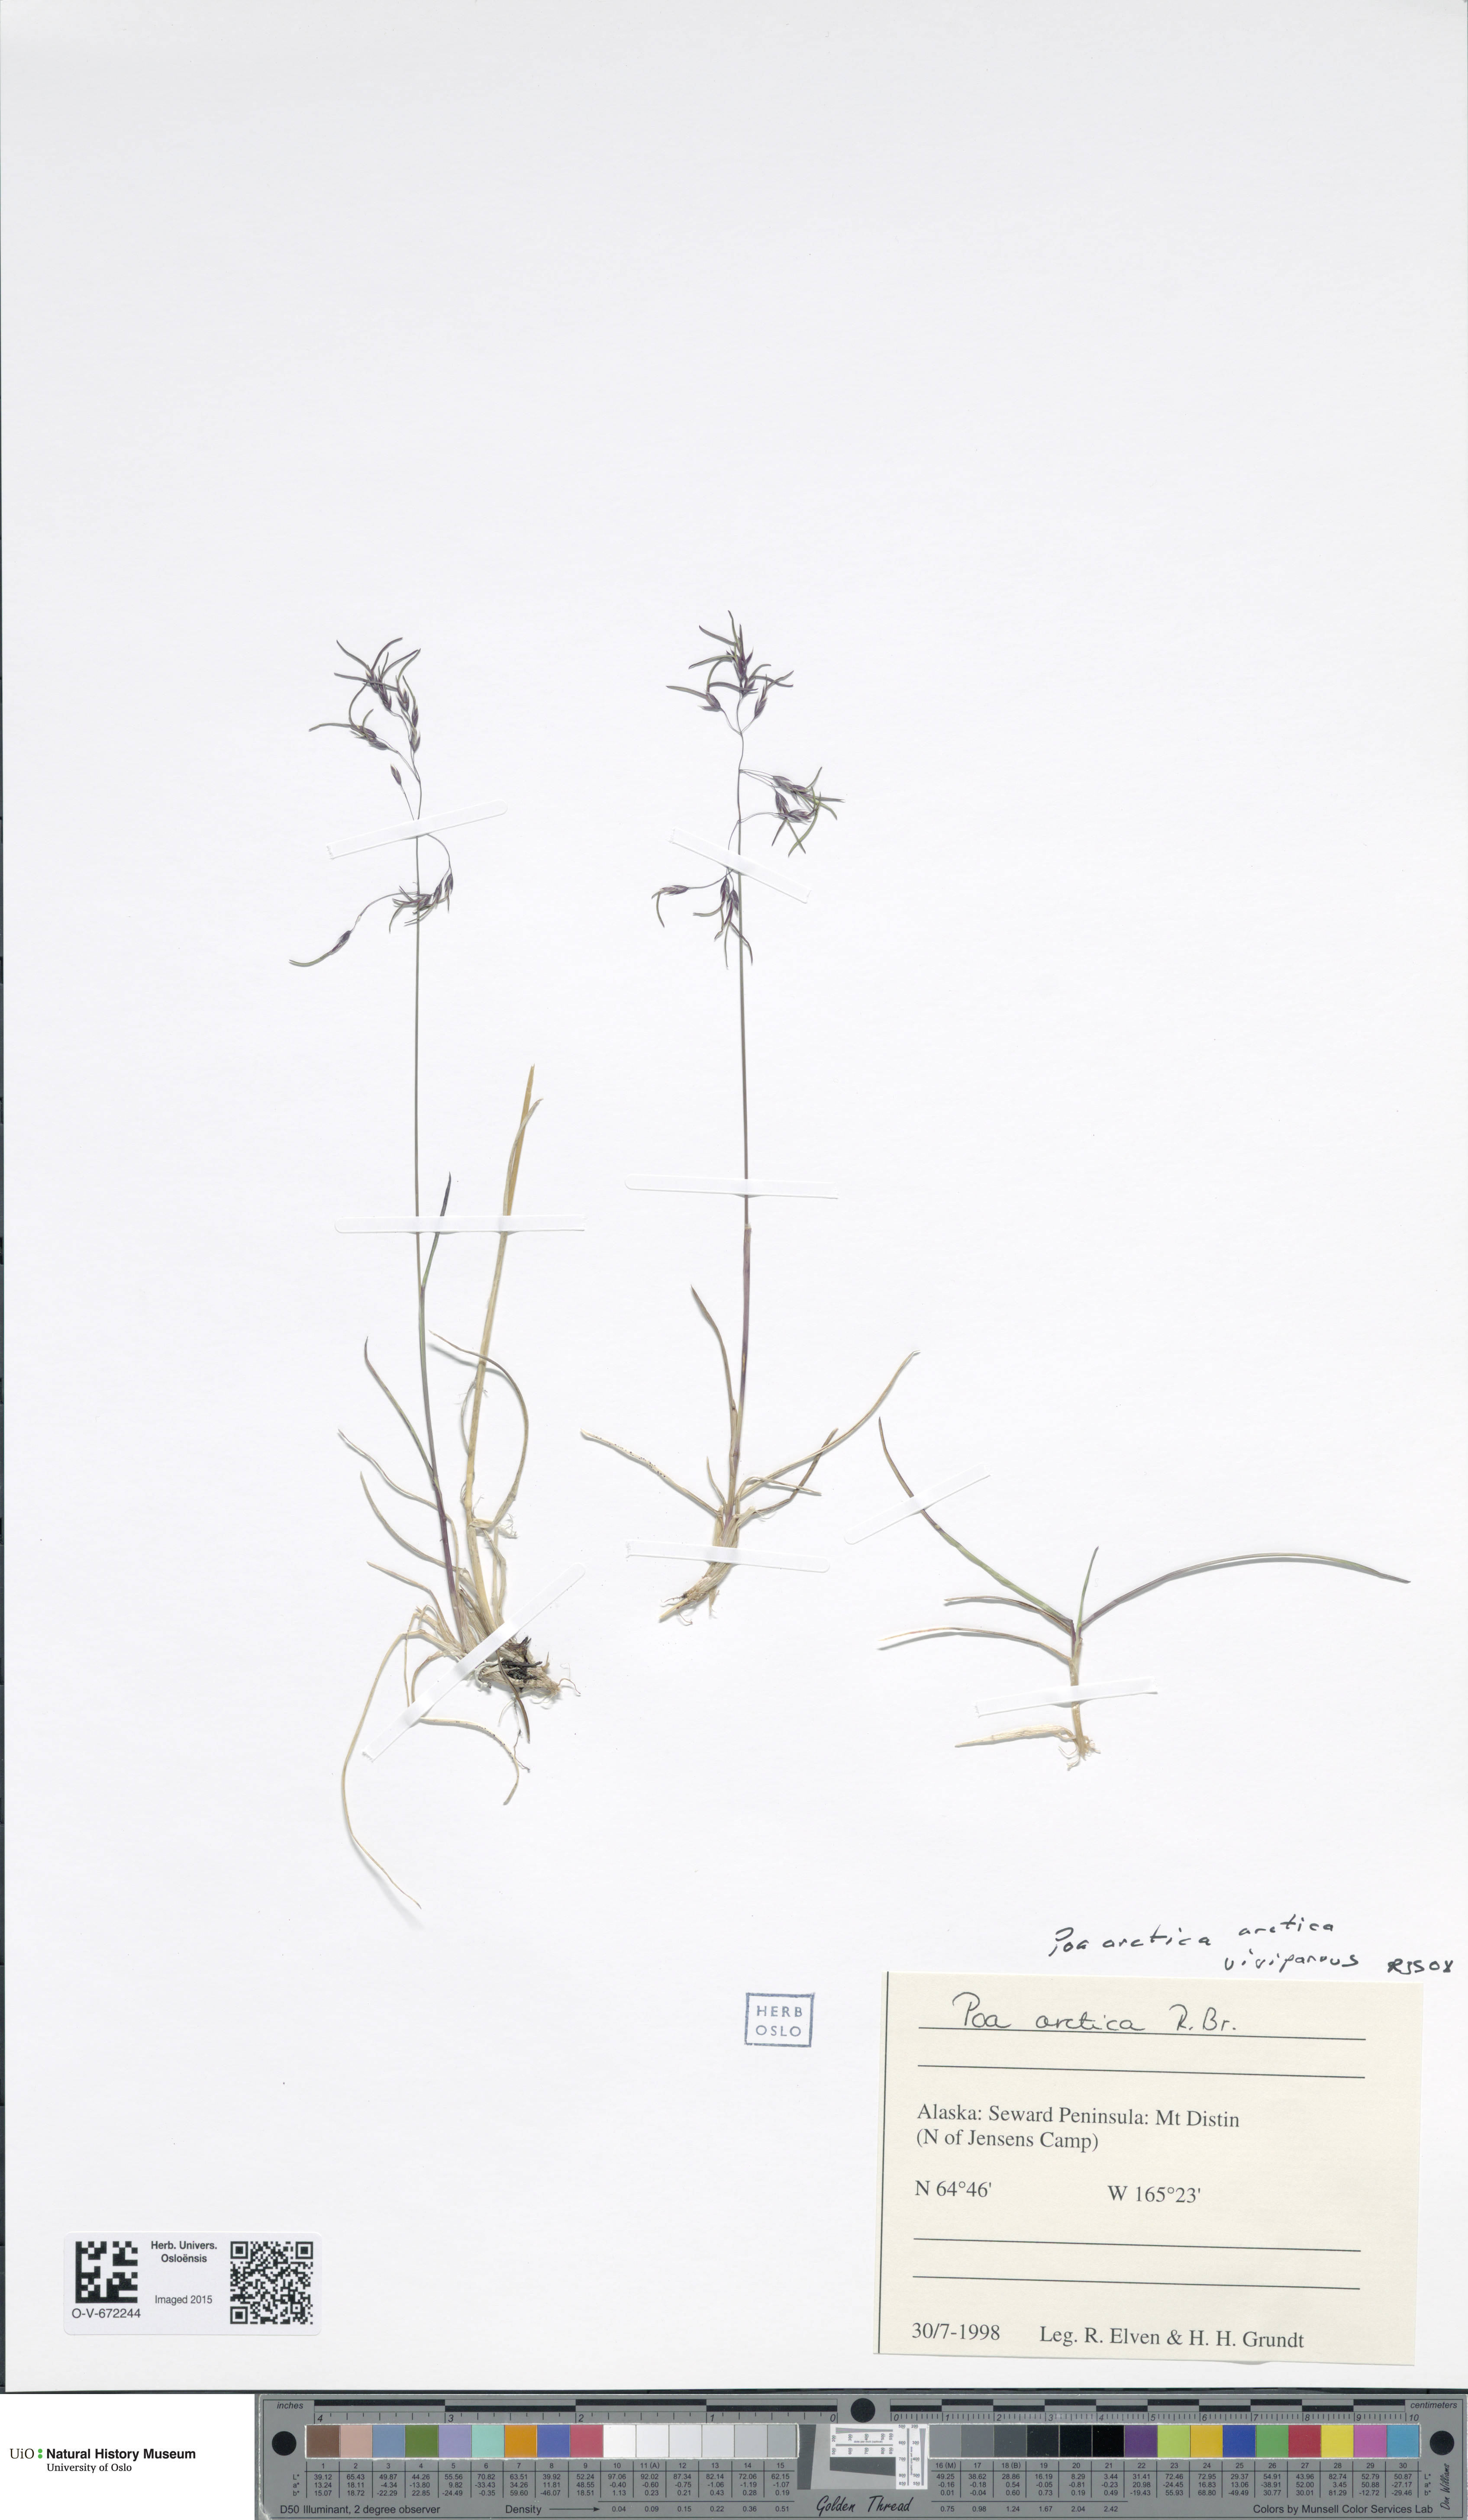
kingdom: Plantae
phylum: Tracheophyta
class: Liliopsida
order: Poales
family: Poaceae
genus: Poa
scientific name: Poa arctica
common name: Arctic bluegrass
